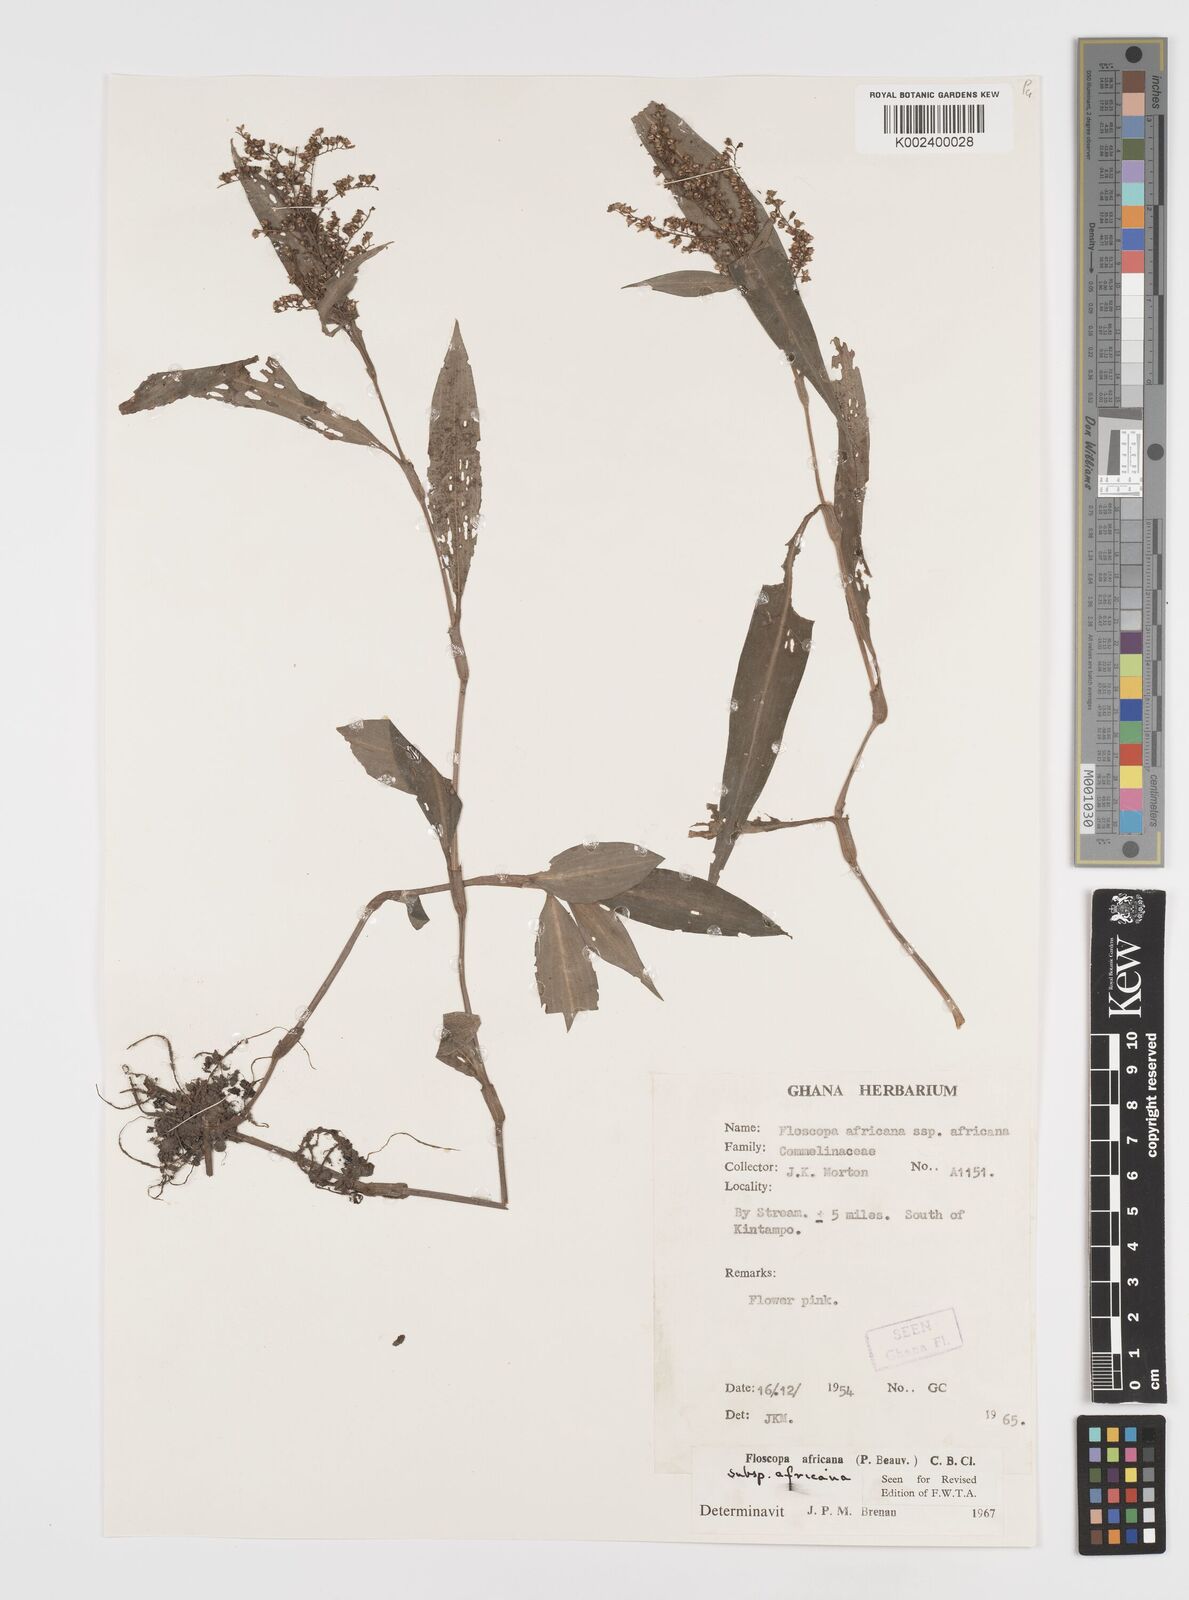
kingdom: Plantae
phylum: Tracheophyta
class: Liliopsida
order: Commelinales
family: Commelinaceae
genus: Floscopa
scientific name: Floscopa africana
